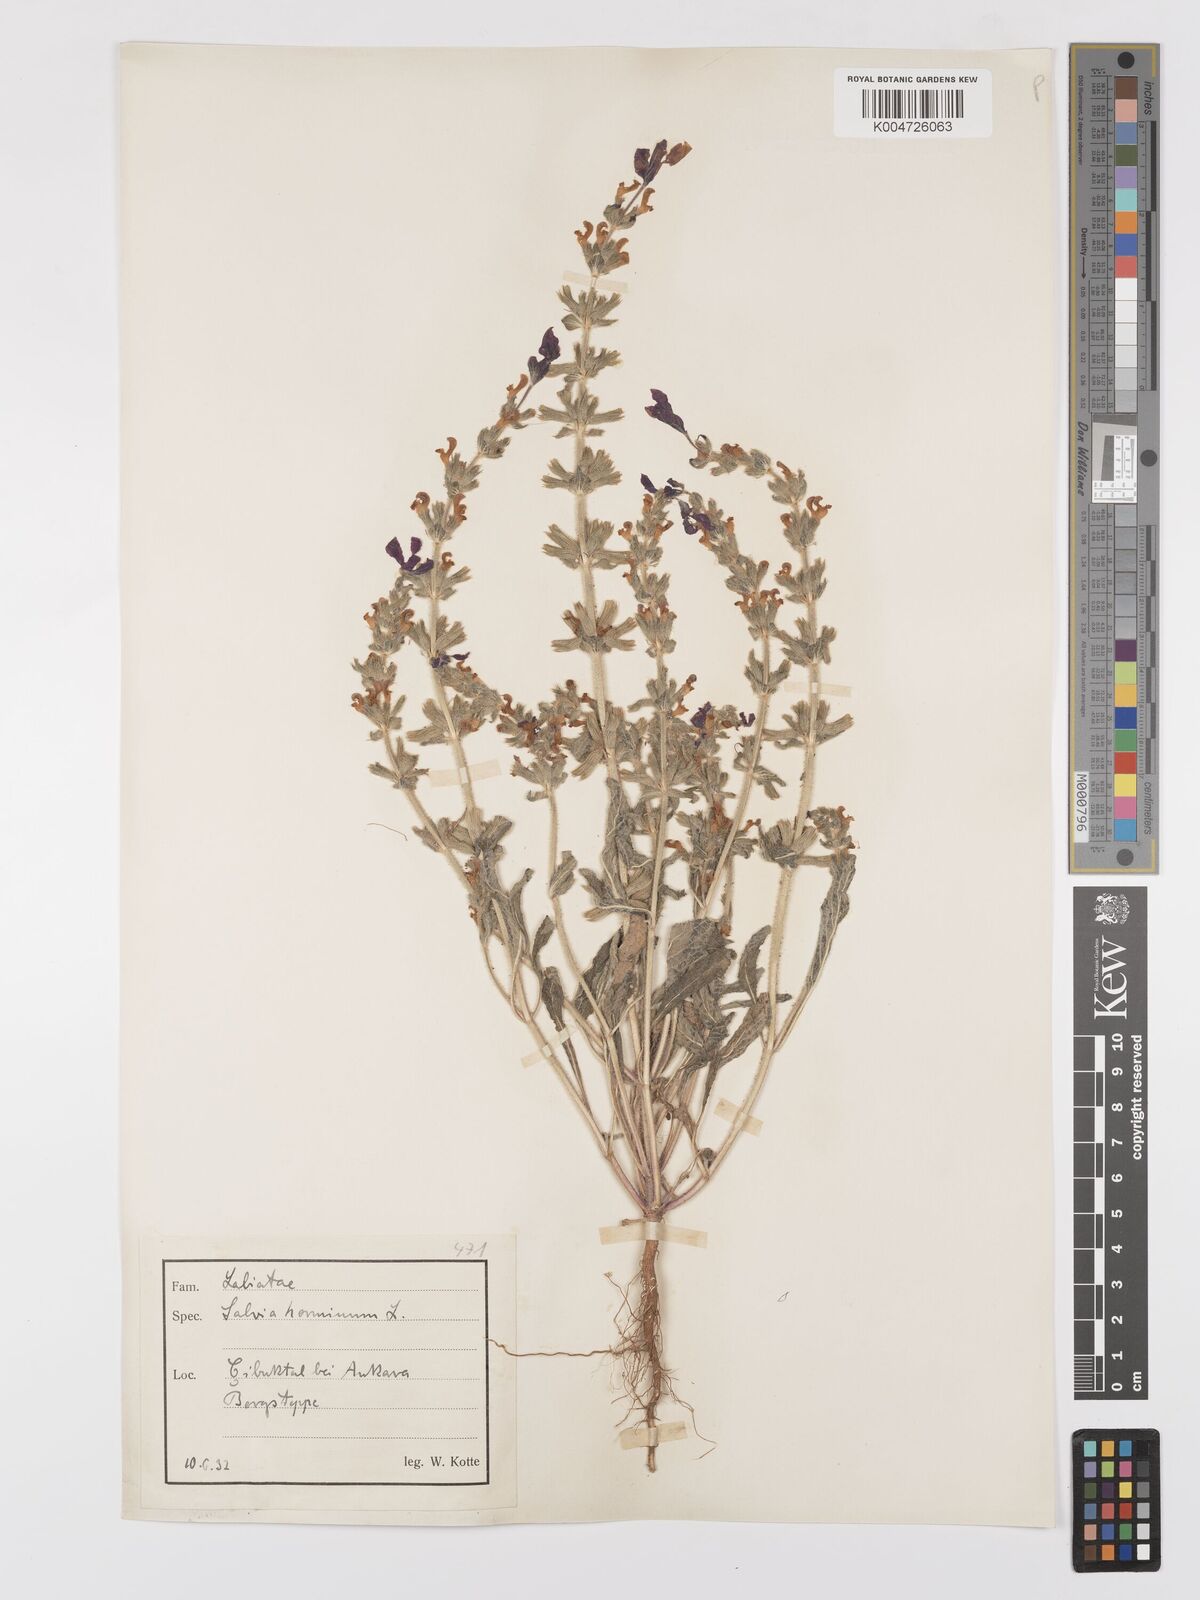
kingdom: Plantae
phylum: Tracheophyta
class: Magnoliopsida
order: Lamiales
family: Lamiaceae
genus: Salvia
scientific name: Salvia viridis
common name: Annual clary
